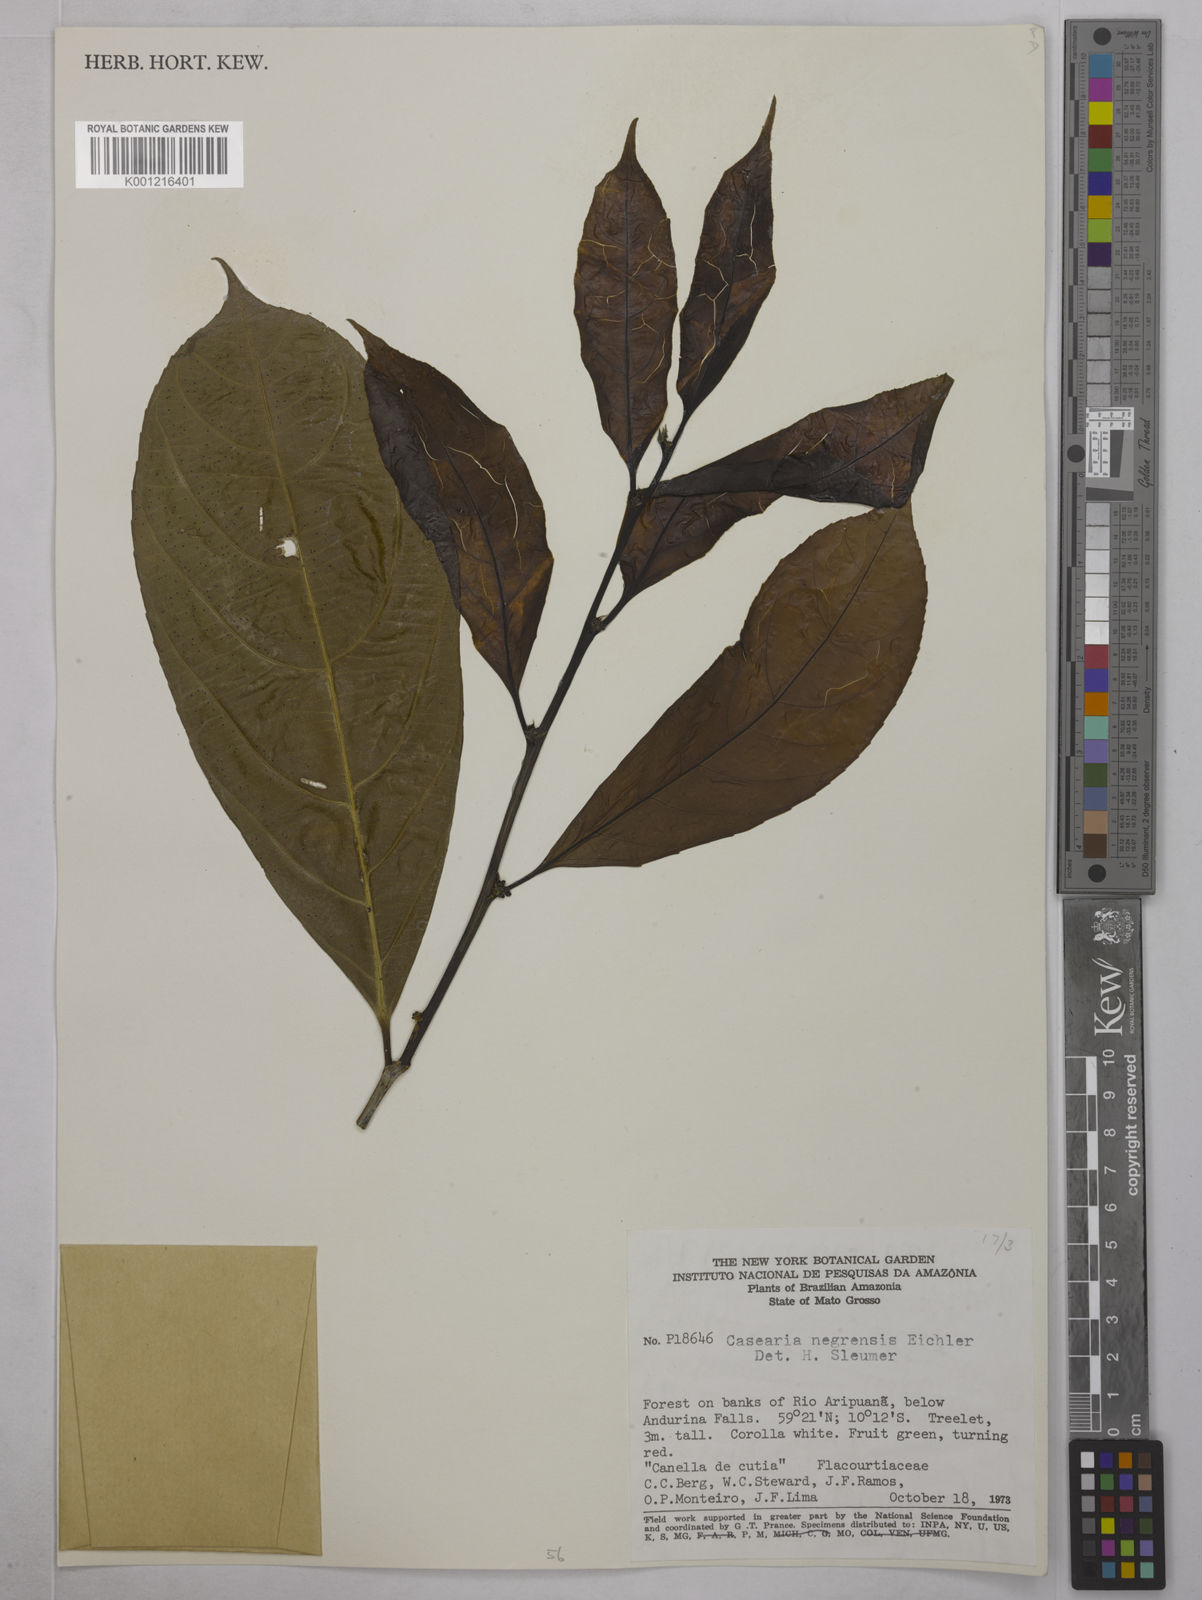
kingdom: Plantae
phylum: Tracheophyta
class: Magnoliopsida
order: Malpighiales
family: Salicaceae
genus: Casearia
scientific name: Casearia negrensis
